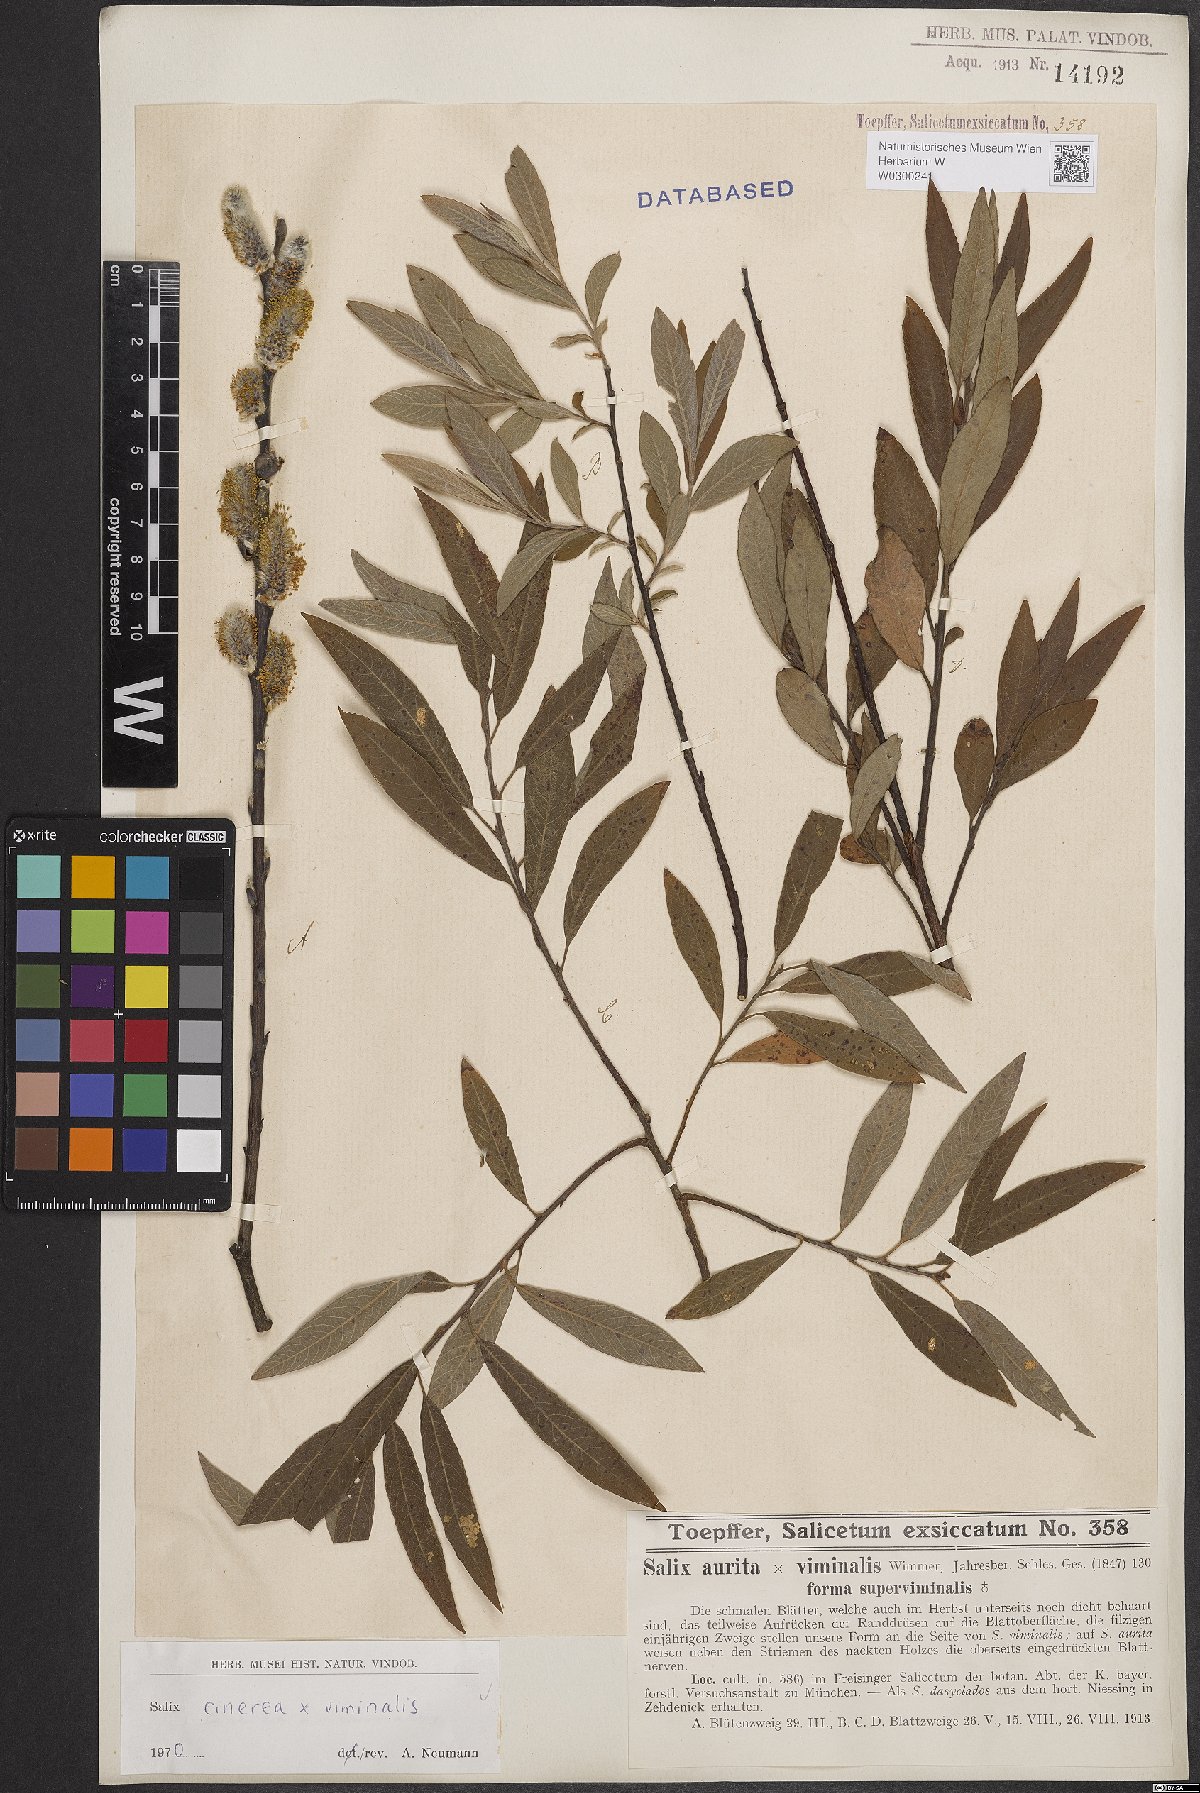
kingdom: Plantae
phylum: Tracheophyta
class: Magnoliopsida
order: Malpighiales
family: Salicaceae
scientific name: Salicaceae
